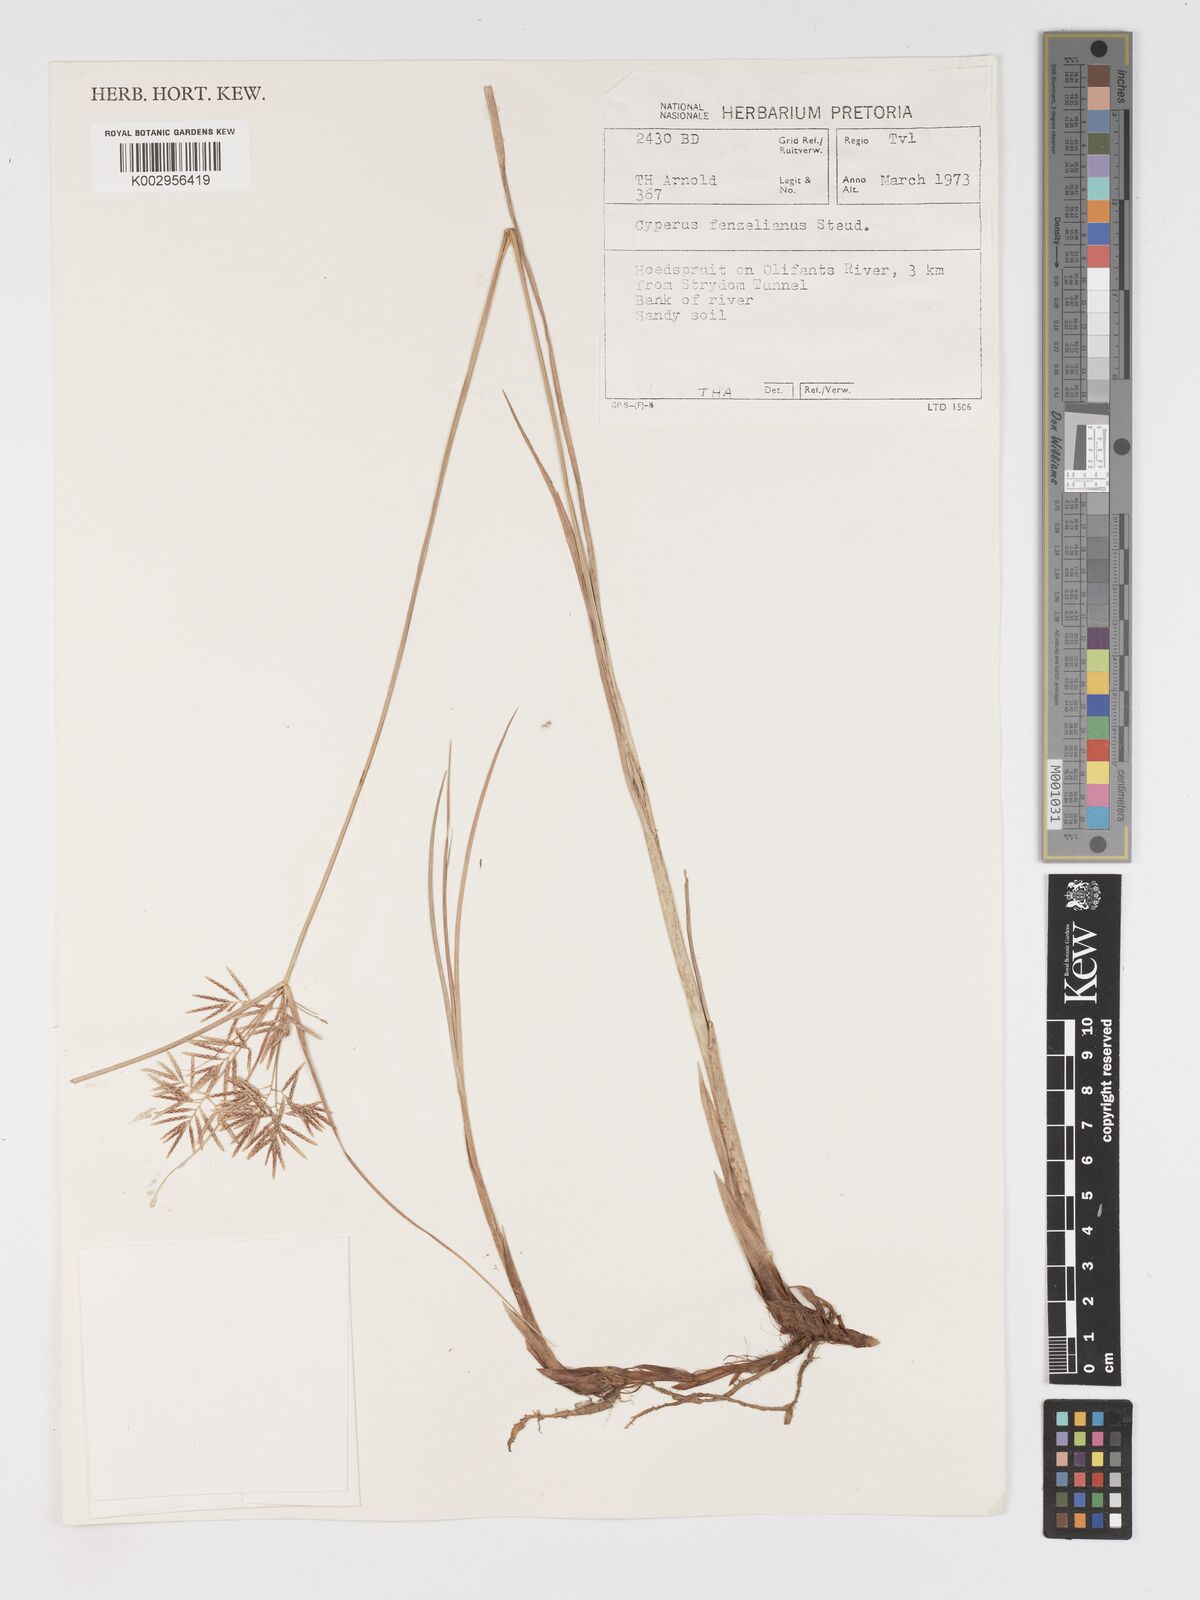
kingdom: Plantae
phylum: Tracheophyta
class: Liliopsida
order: Poales
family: Cyperaceae
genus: Cyperus
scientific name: Cyperus longus
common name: Galingale
